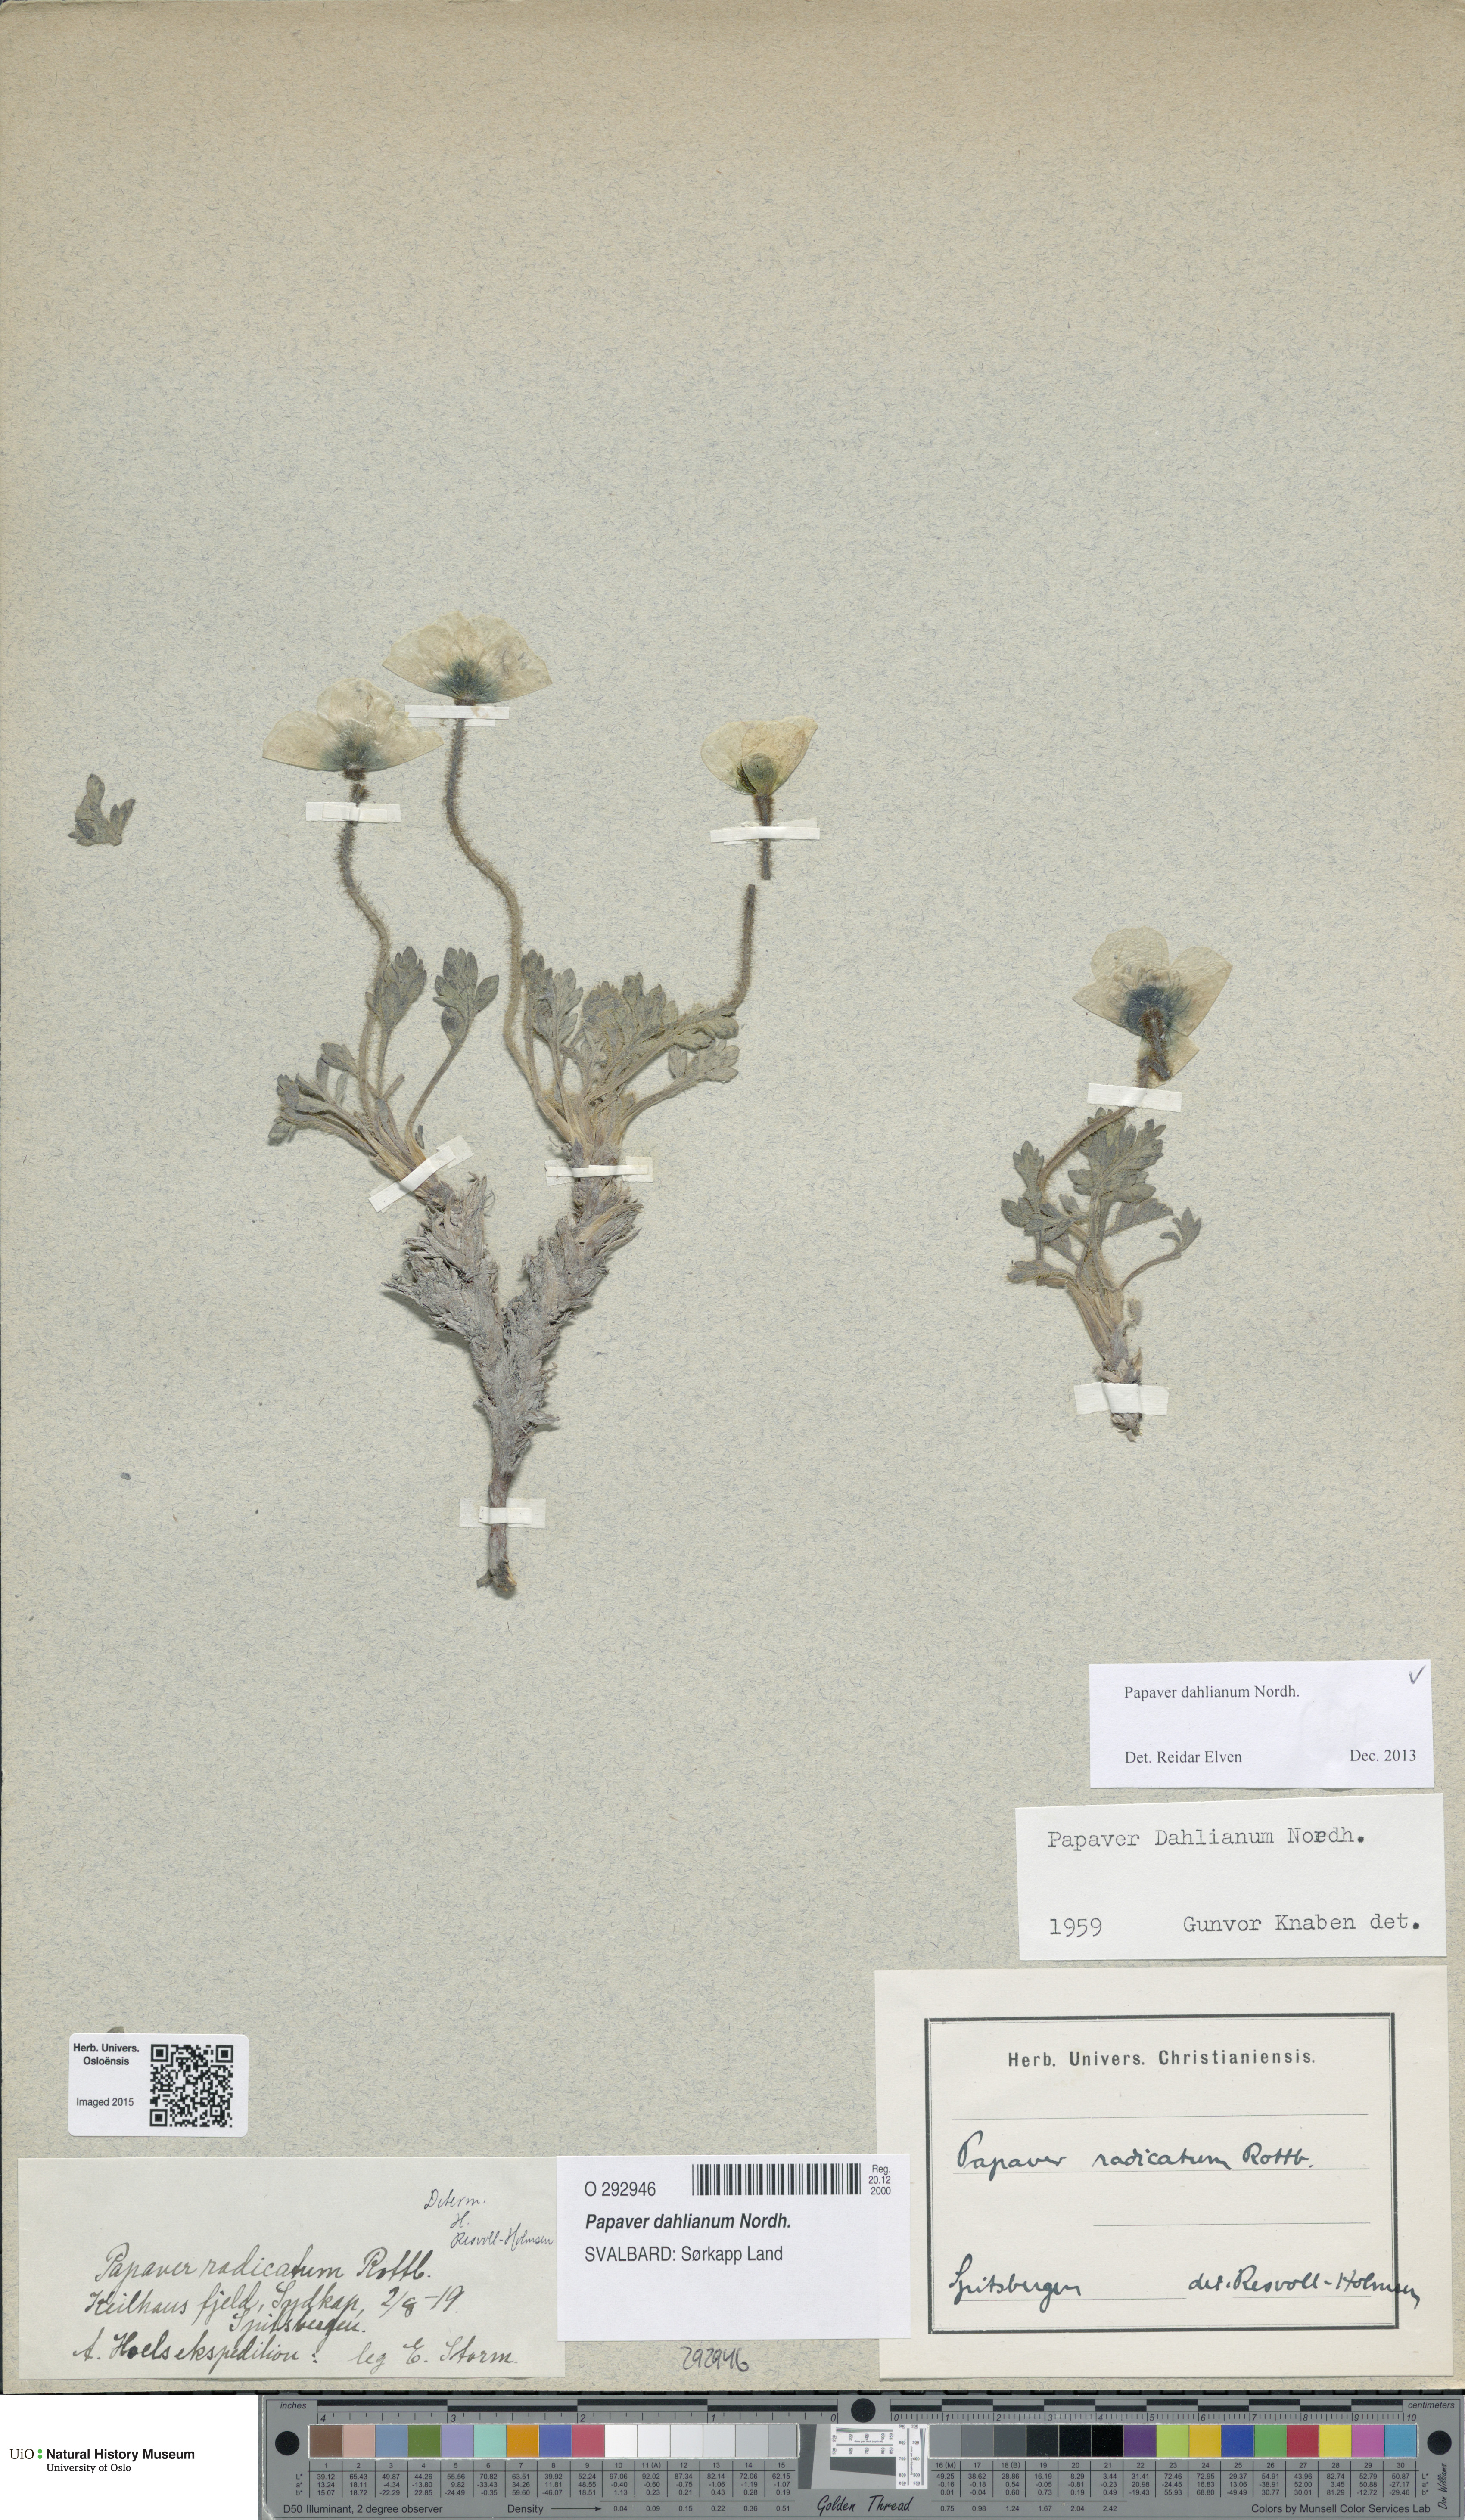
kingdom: Plantae
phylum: Tracheophyta
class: Magnoliopsida
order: Ranunculales
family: Papaveraceae
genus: Papaver
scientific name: Papaver radicatum
